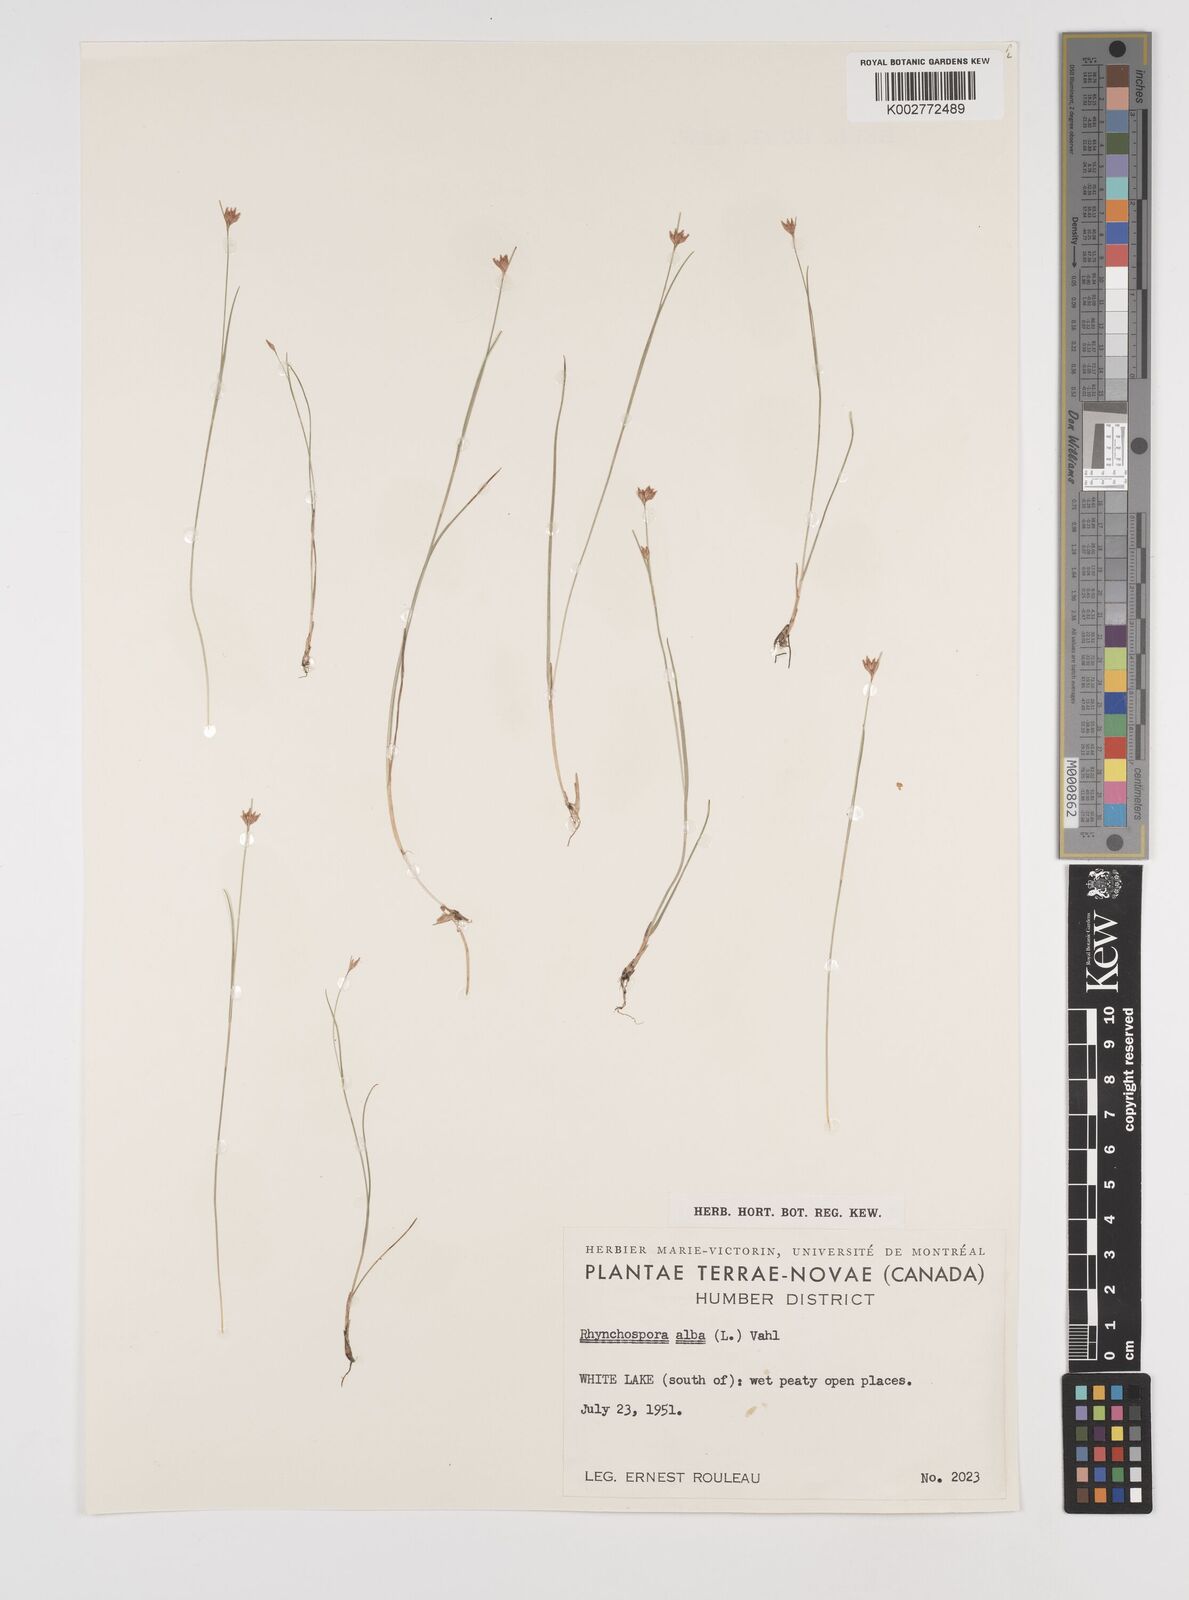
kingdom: Plantae
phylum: Tracheophyta
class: Liliopsida
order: Poales
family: Cyperaceae
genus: Rhynchospora
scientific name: Rhynchospora alba
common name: White beak-sedge
